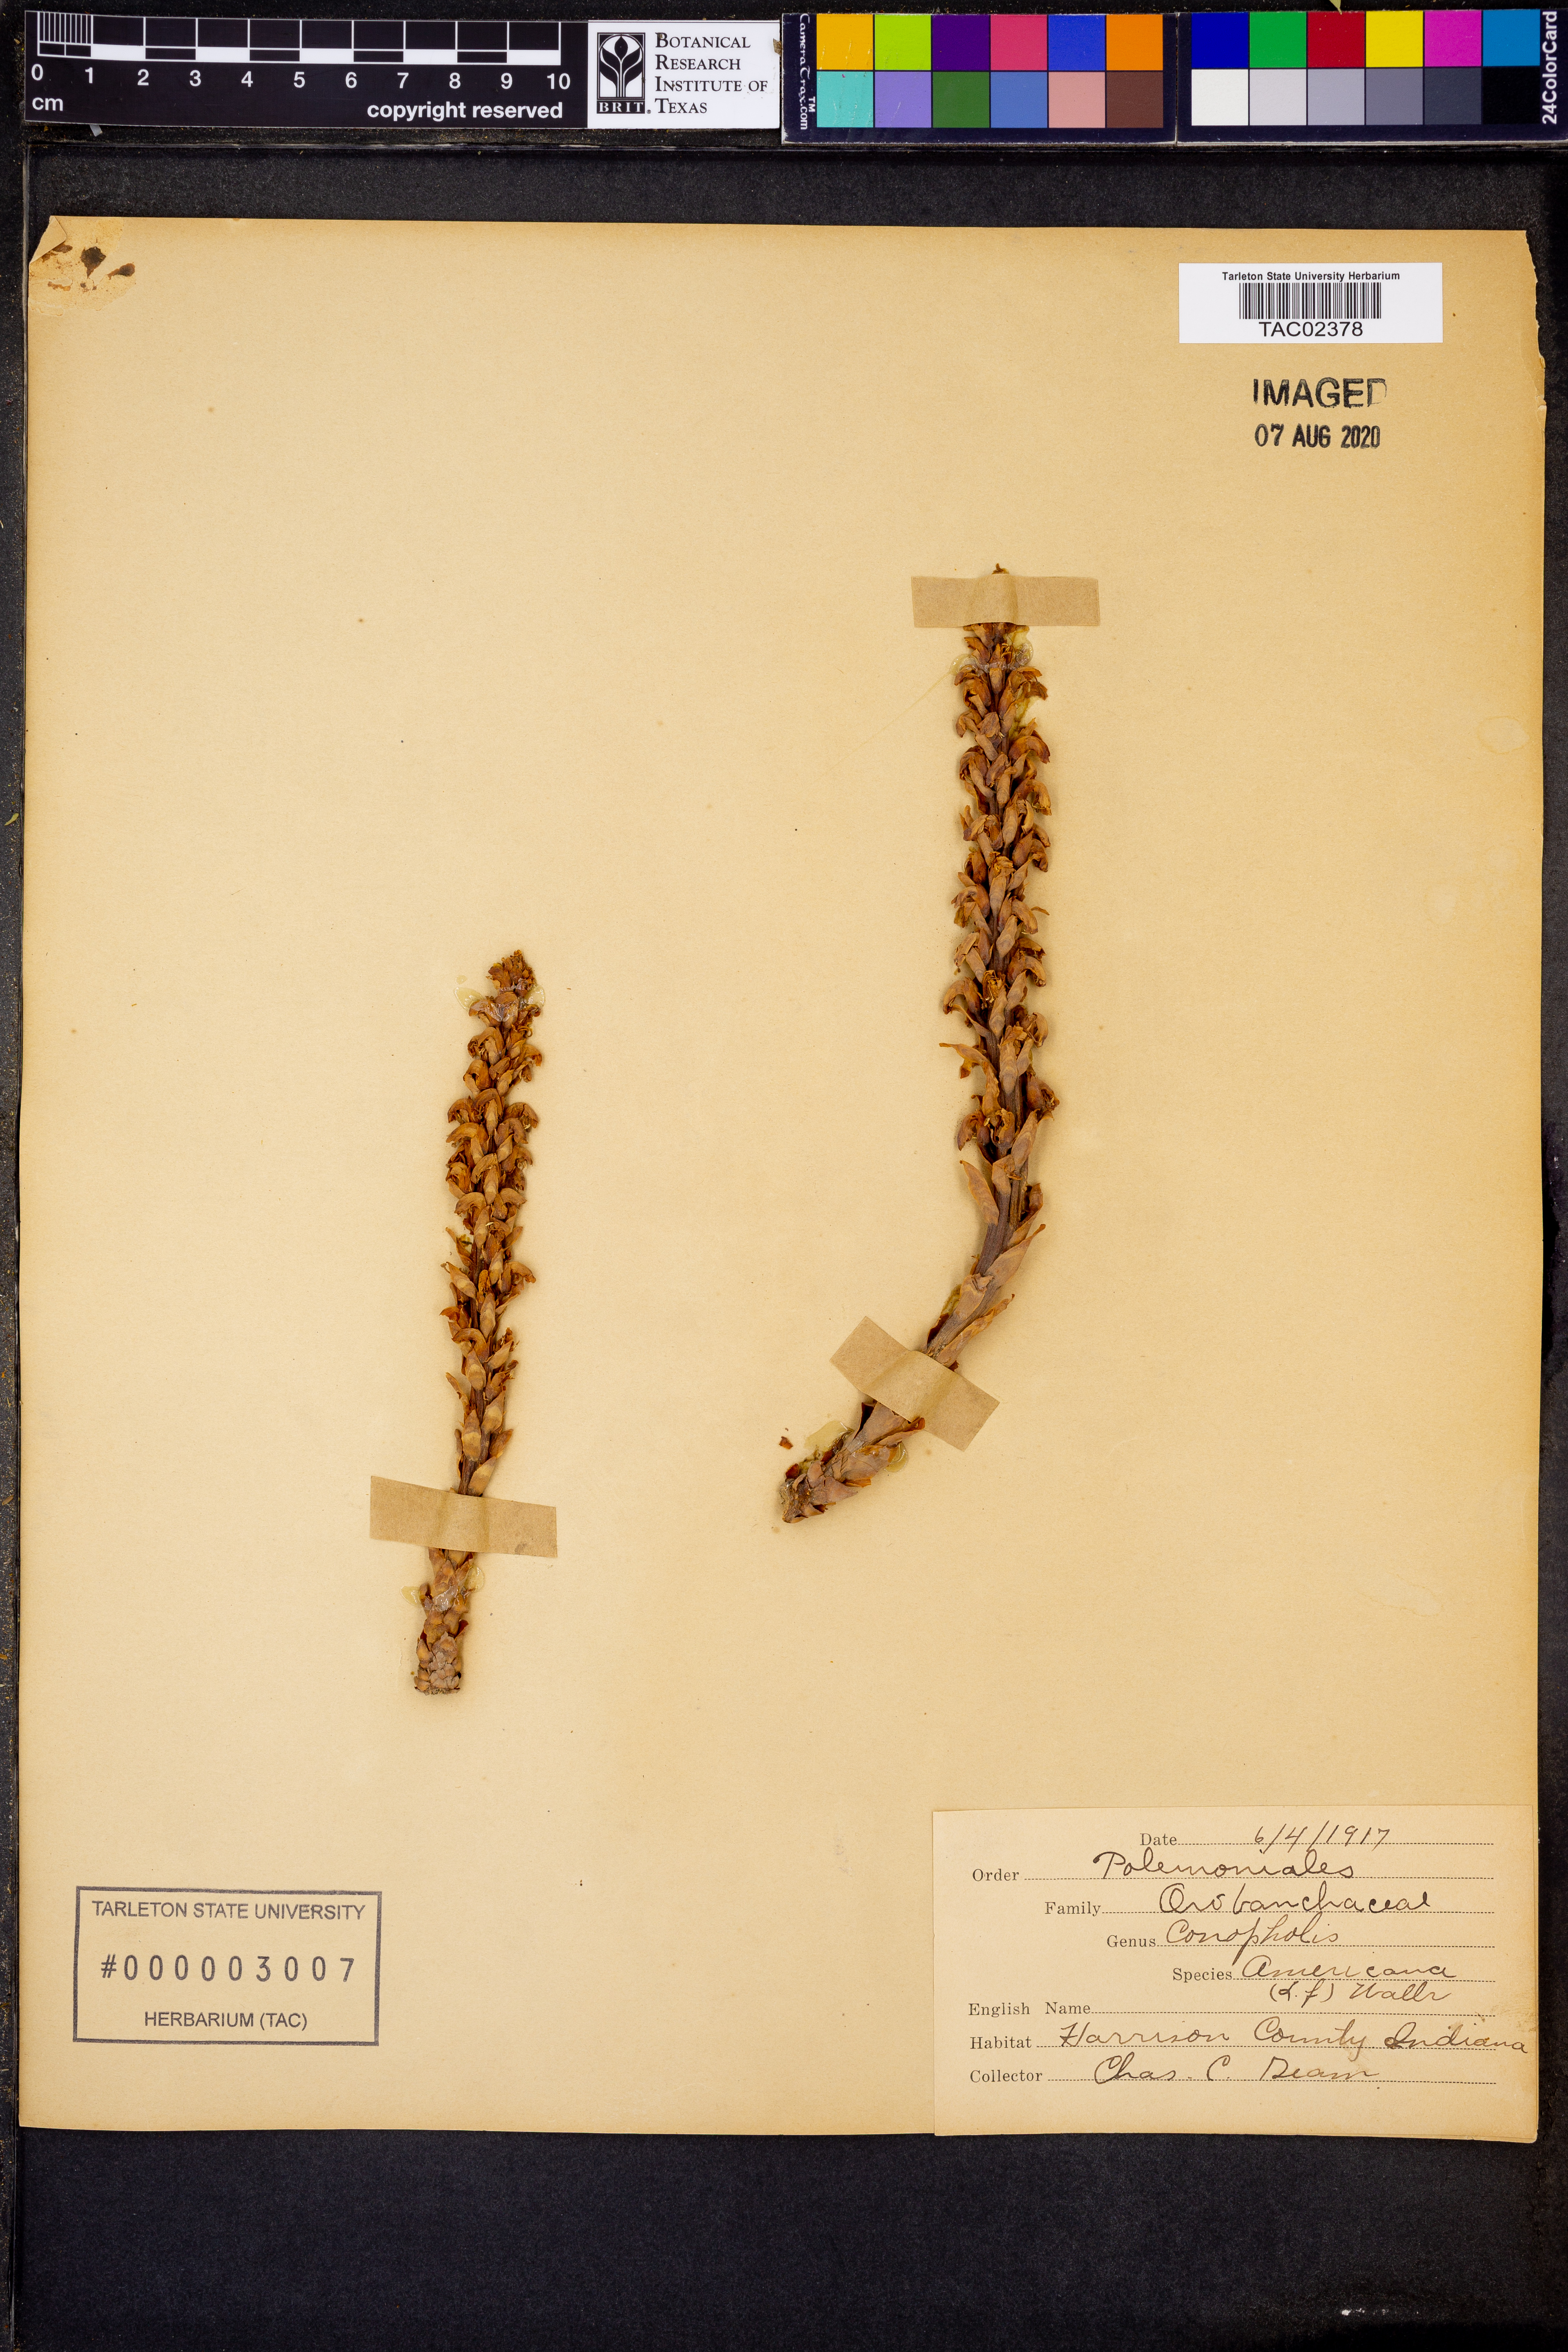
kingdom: Plantae
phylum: Tracheophyta
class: Magnoliopsida
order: Lamiales
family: Orobanchaceae
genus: Conopholis
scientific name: Conopholis americana
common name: American cancer-root
